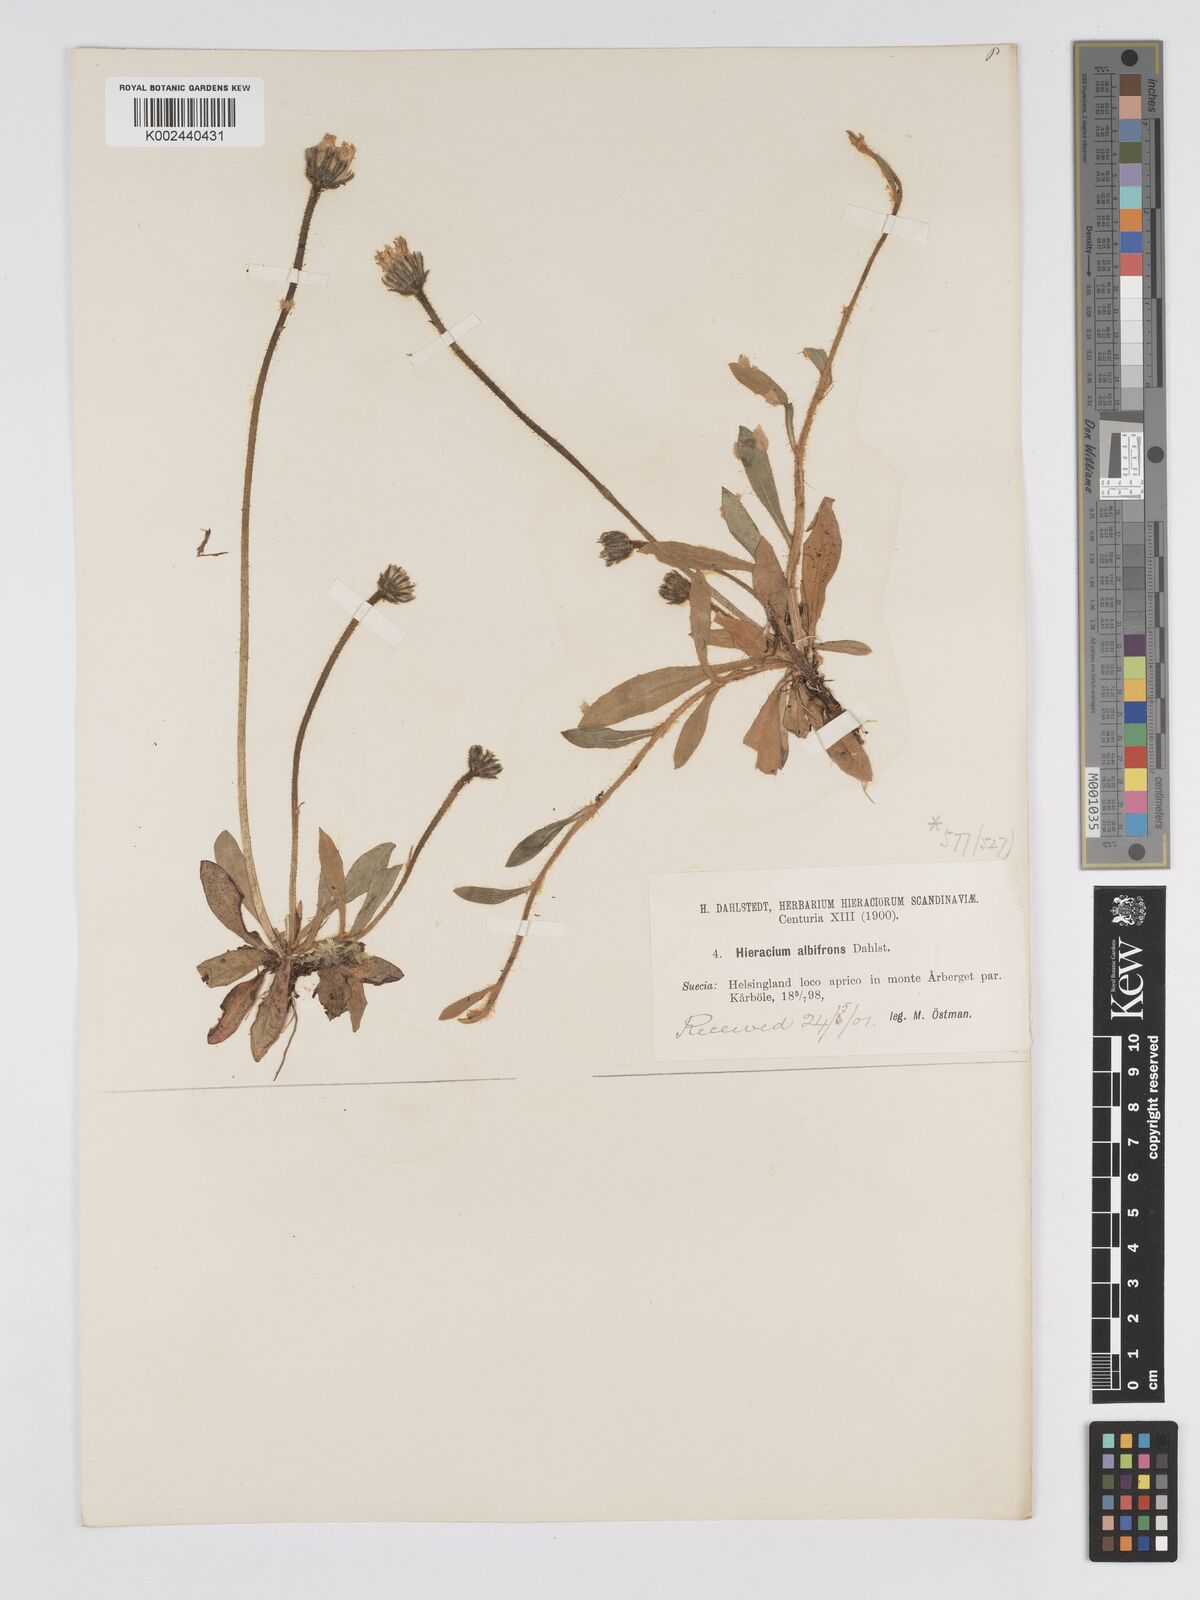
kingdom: Plantae
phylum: Tracheophyta
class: Magnoliopsida
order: Asterales
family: Asteraceae
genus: Pilosella
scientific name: Pilosella officinarum
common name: Mouse-ear hawkweed
